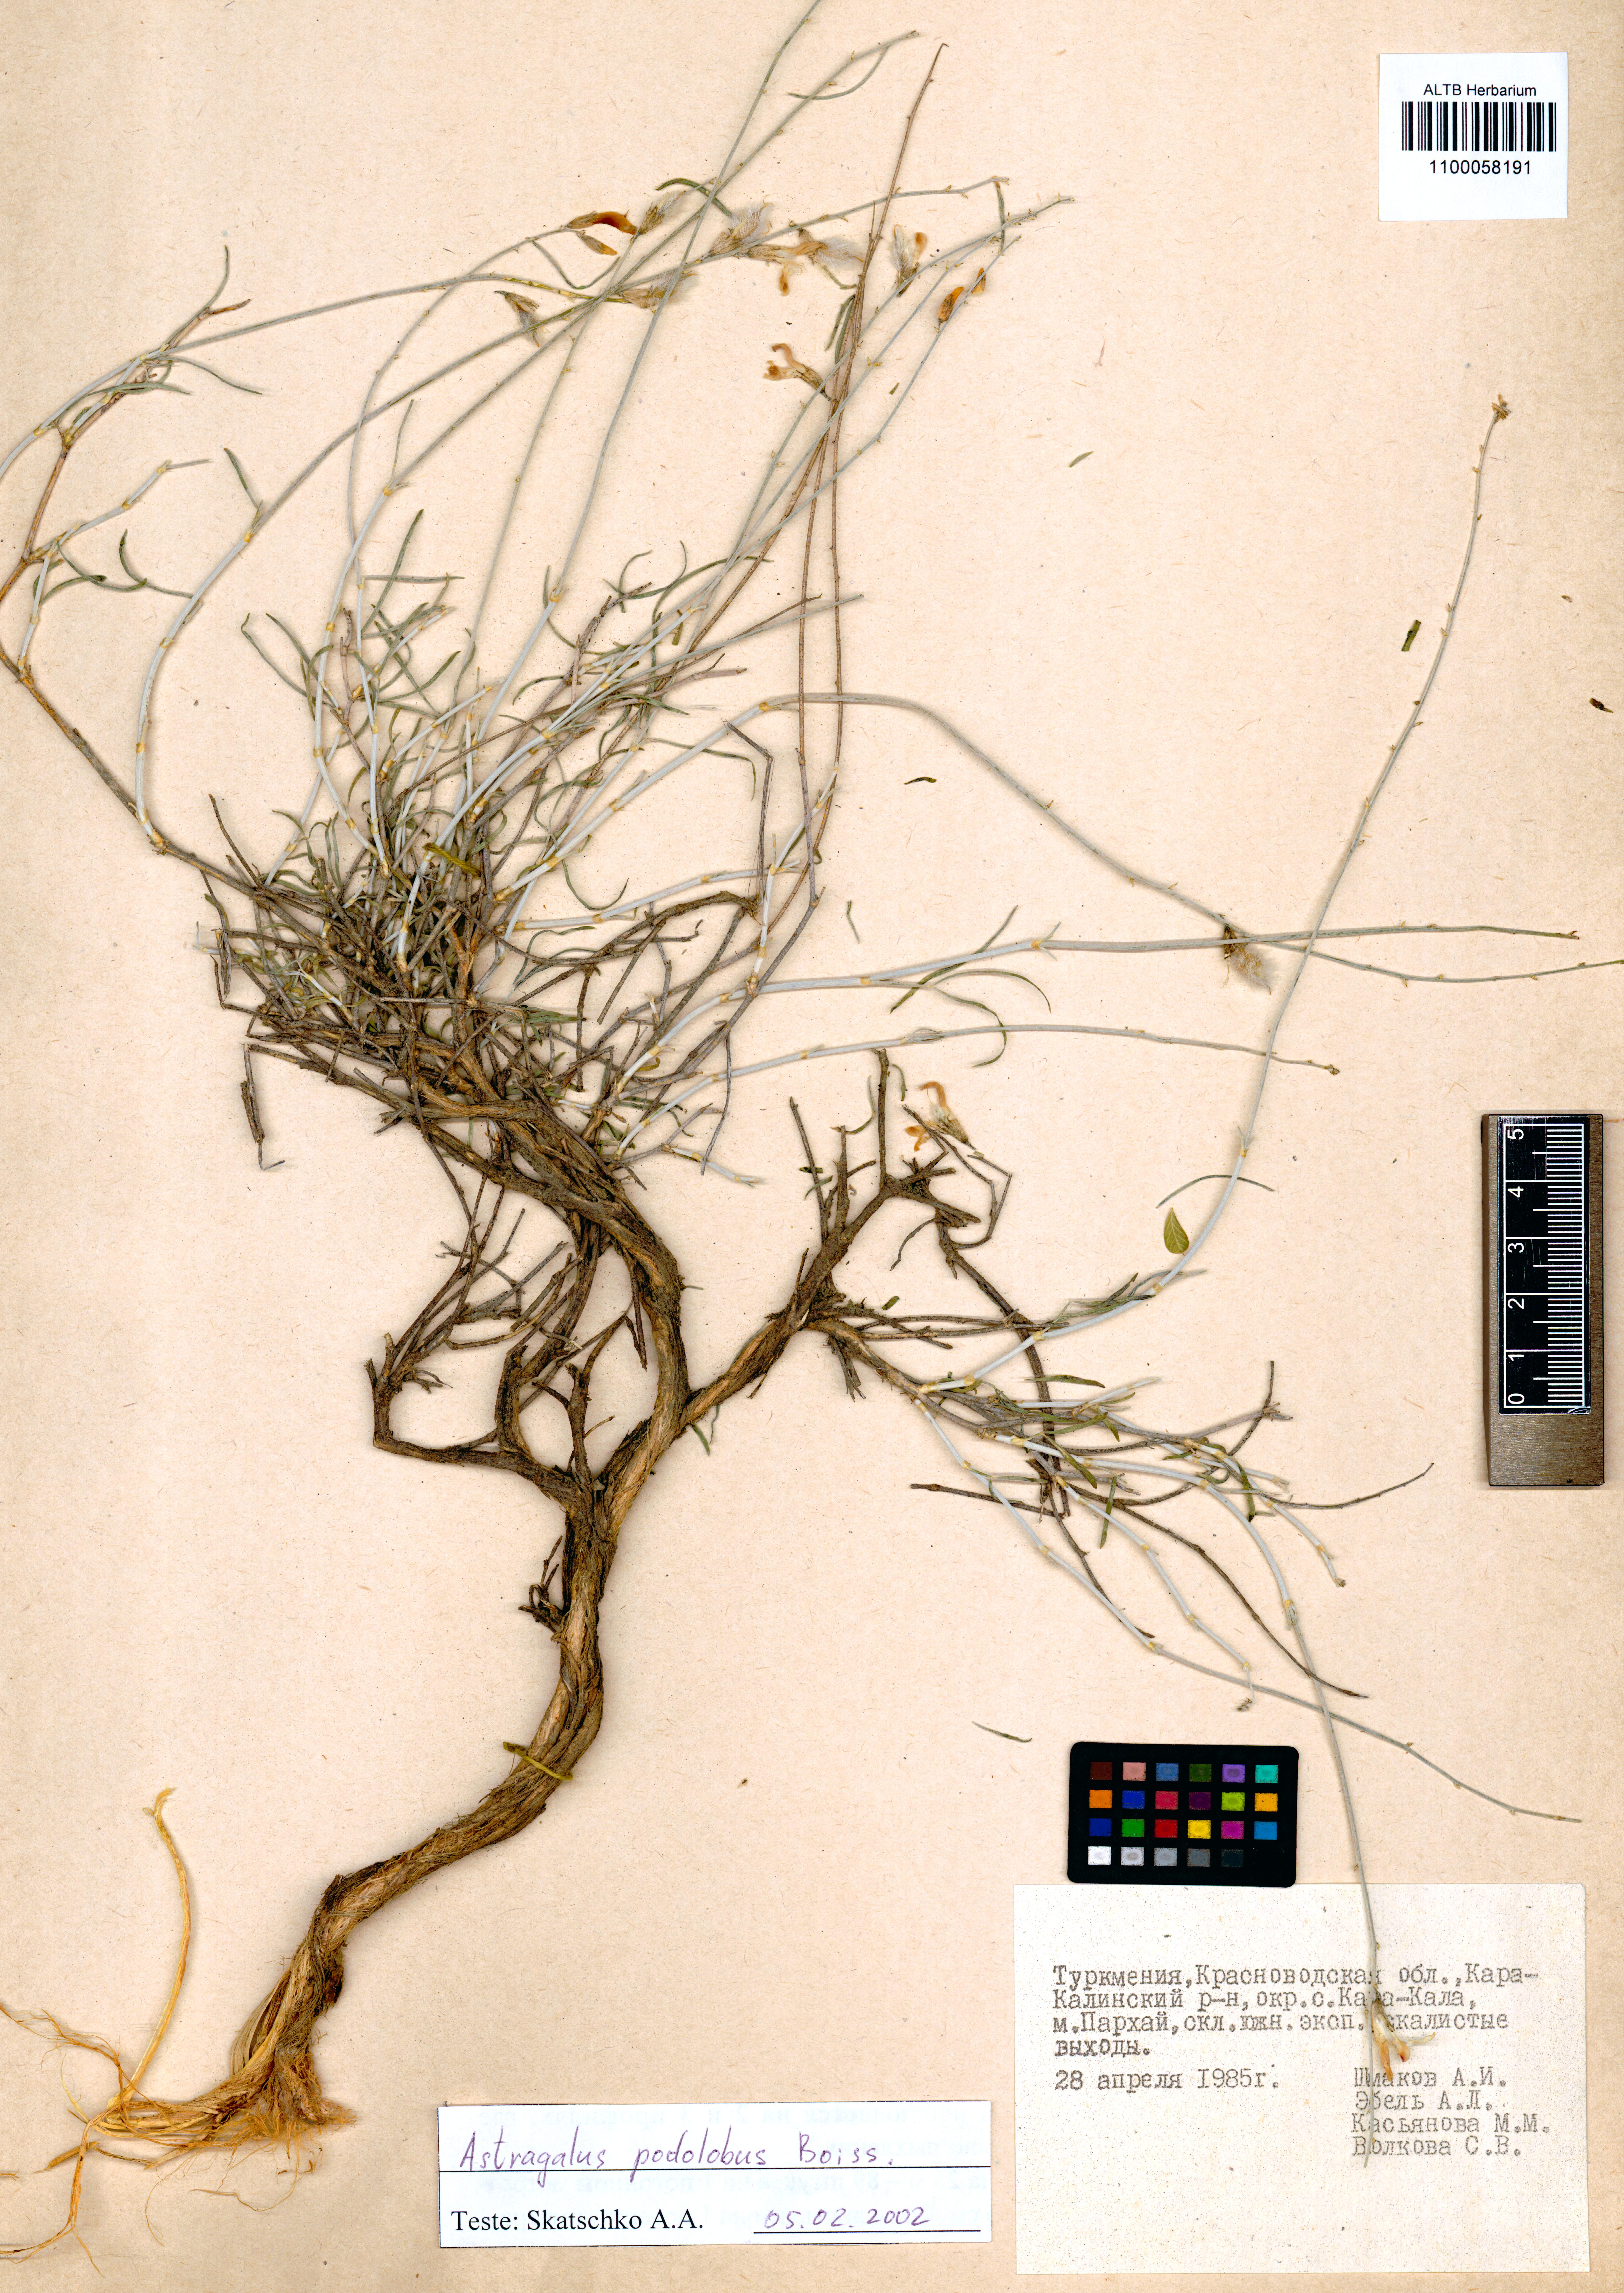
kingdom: Plantae
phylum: Tracheophyta
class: Magnoliopsida
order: Fabales
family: Fabaceae
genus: Astragalus
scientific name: Astragalus podolobus
